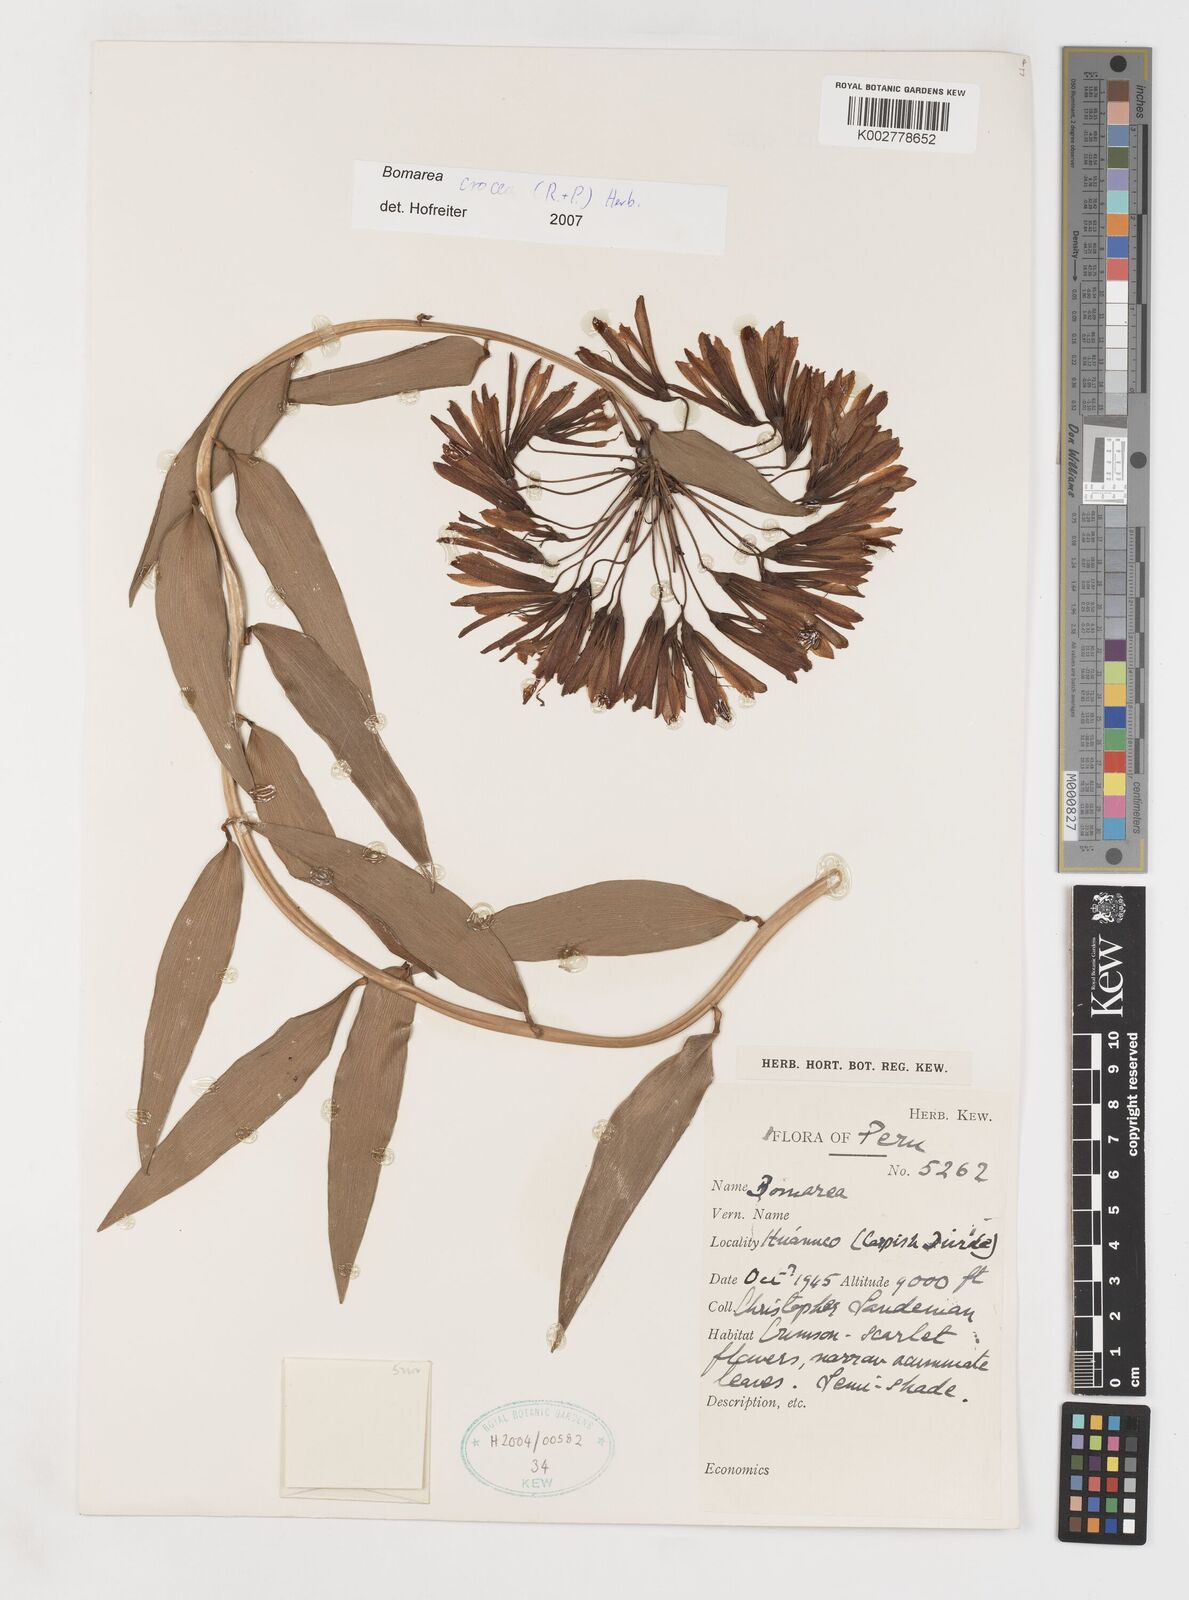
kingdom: Plantae
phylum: Tracheophyta
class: Liliopsida
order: Liliales
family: Alstroemeriaceae
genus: Bomarea
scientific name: Bomarea crocea
